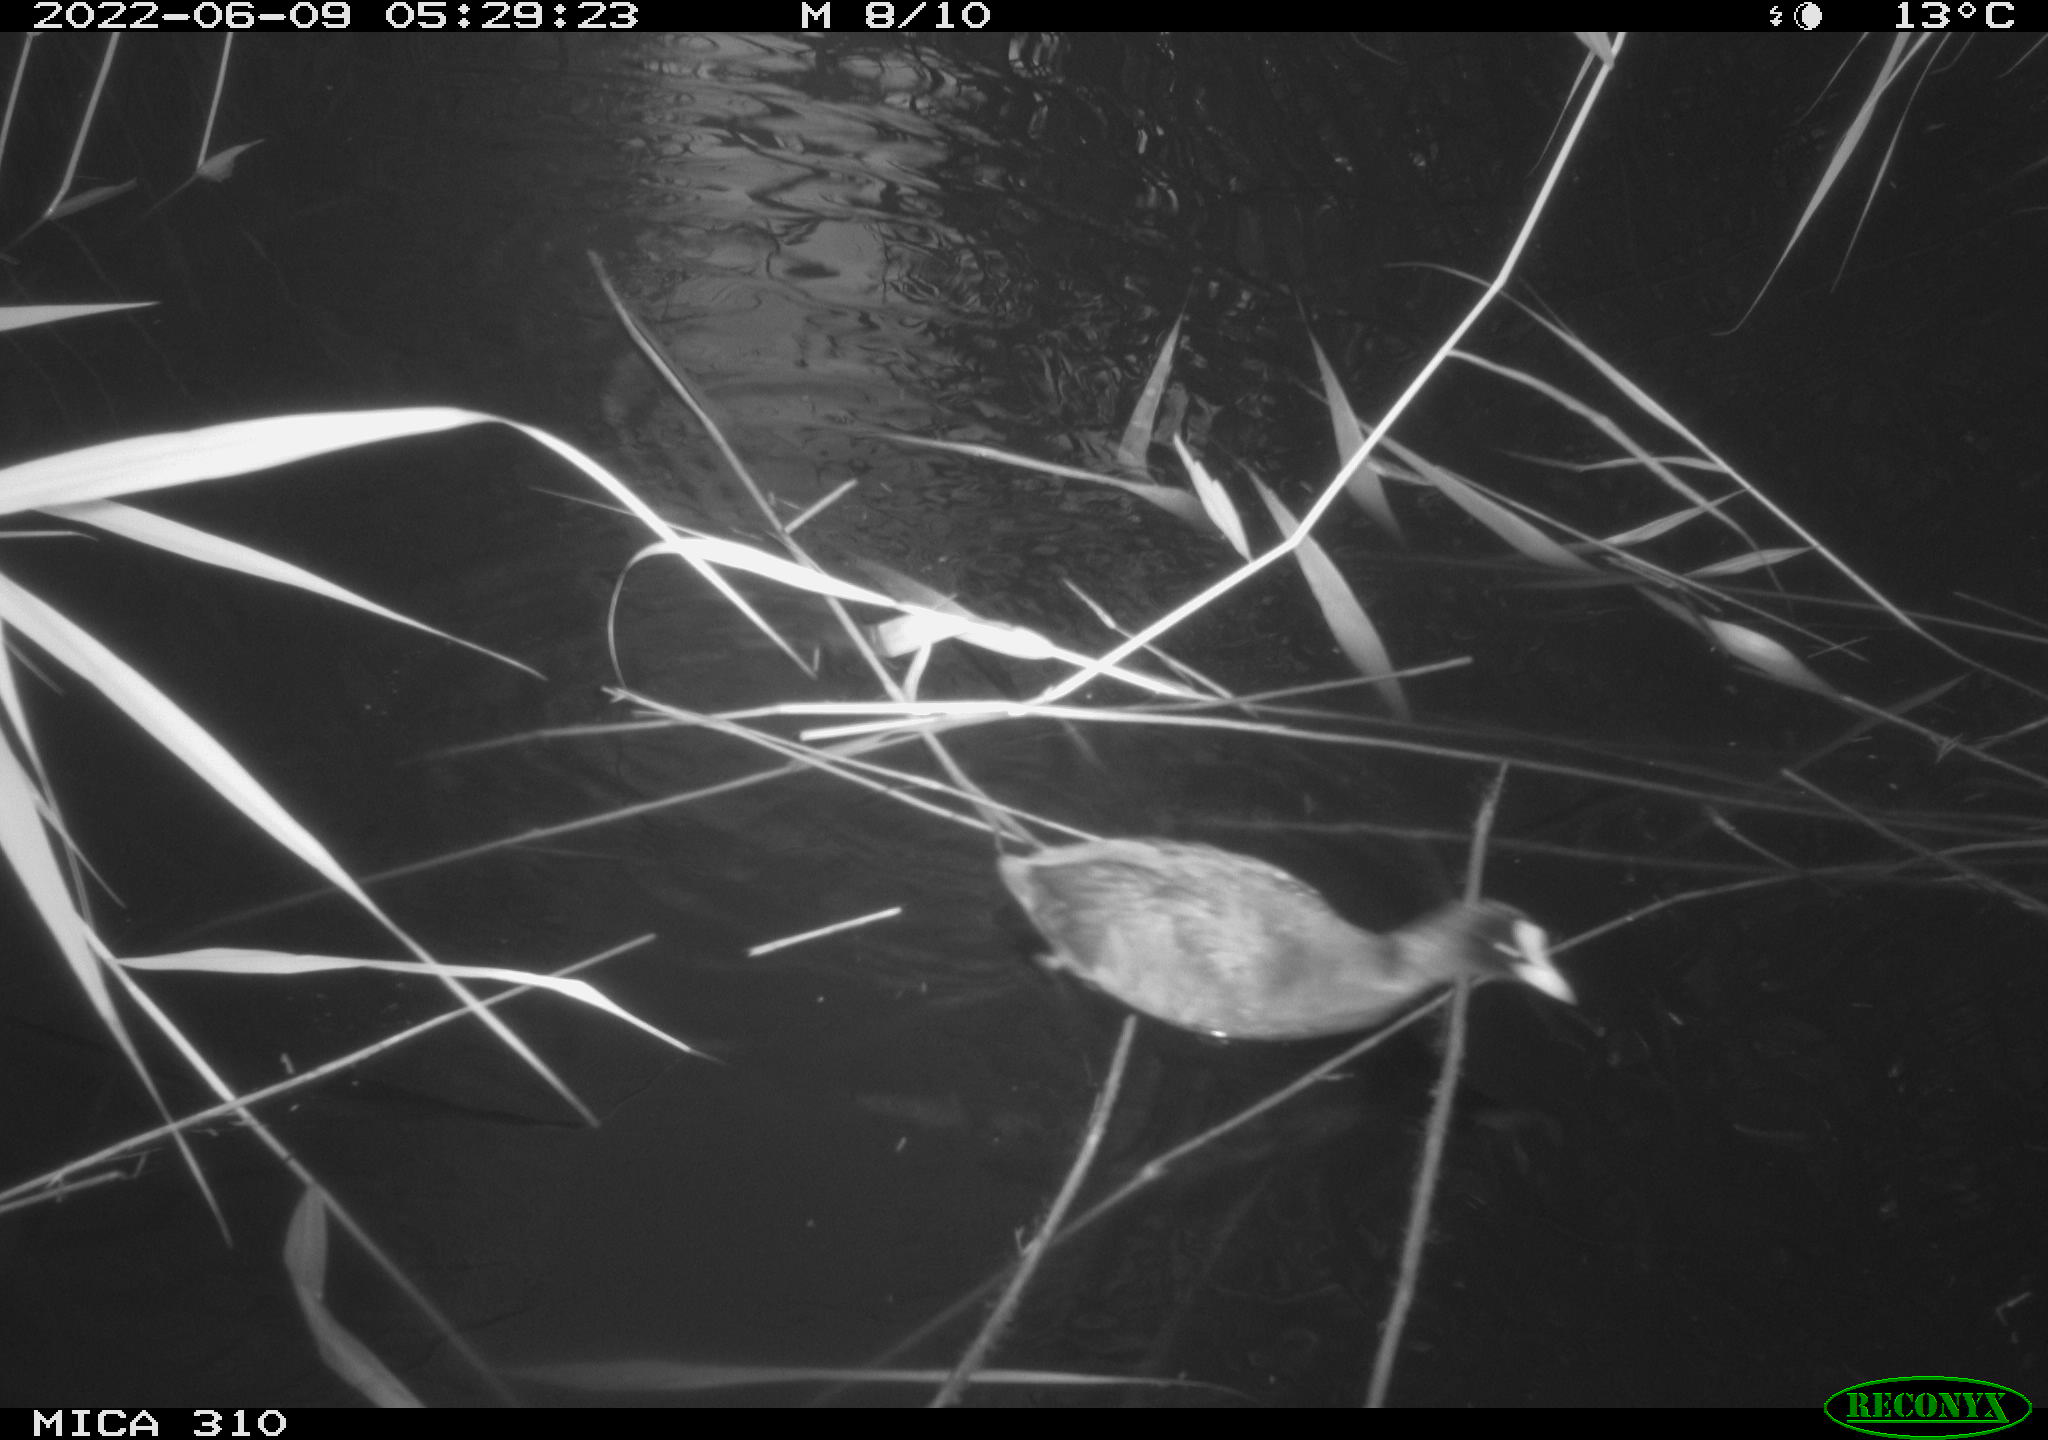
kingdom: Animalia
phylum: Chordata
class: Aves
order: Gruiformes
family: Rallidae
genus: Fulica
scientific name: Fulica atra
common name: Eurasian coot
